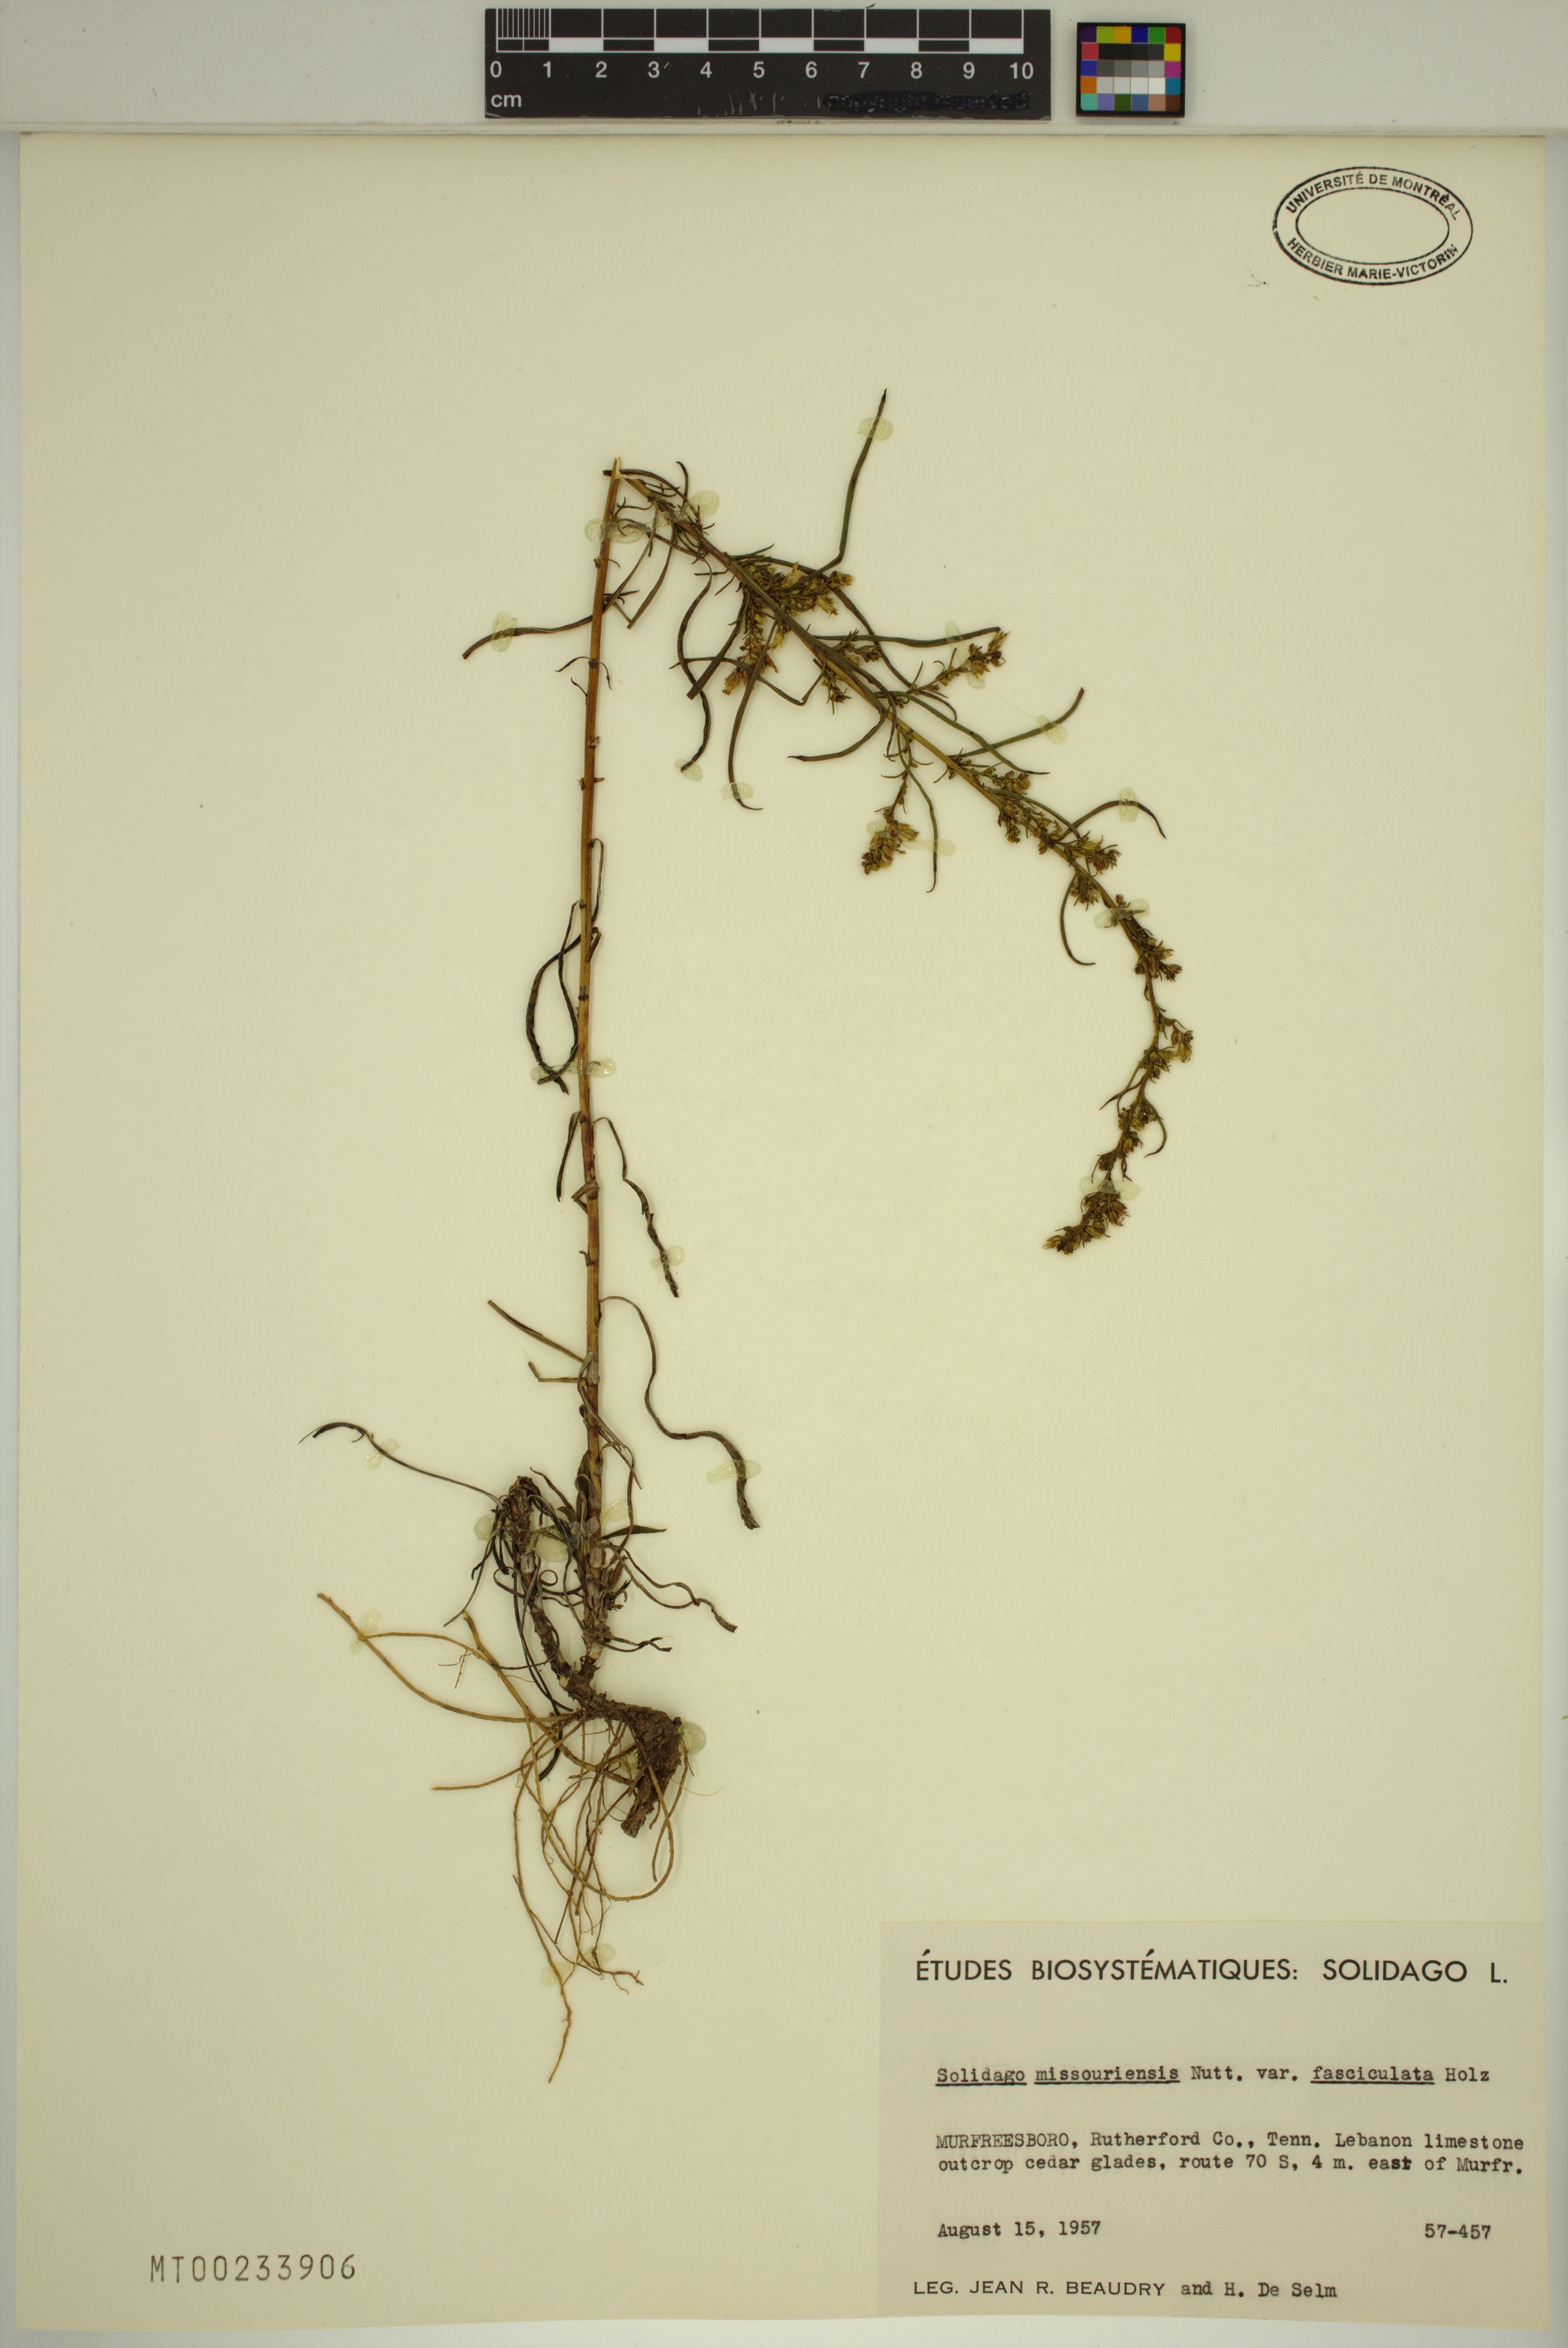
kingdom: Plantae
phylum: Tracheophyta
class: Magnoliopsida
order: Asterales
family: Asteraceae
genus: Solidago
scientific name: Solidago missouriensis
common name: Prairie goldenrod
